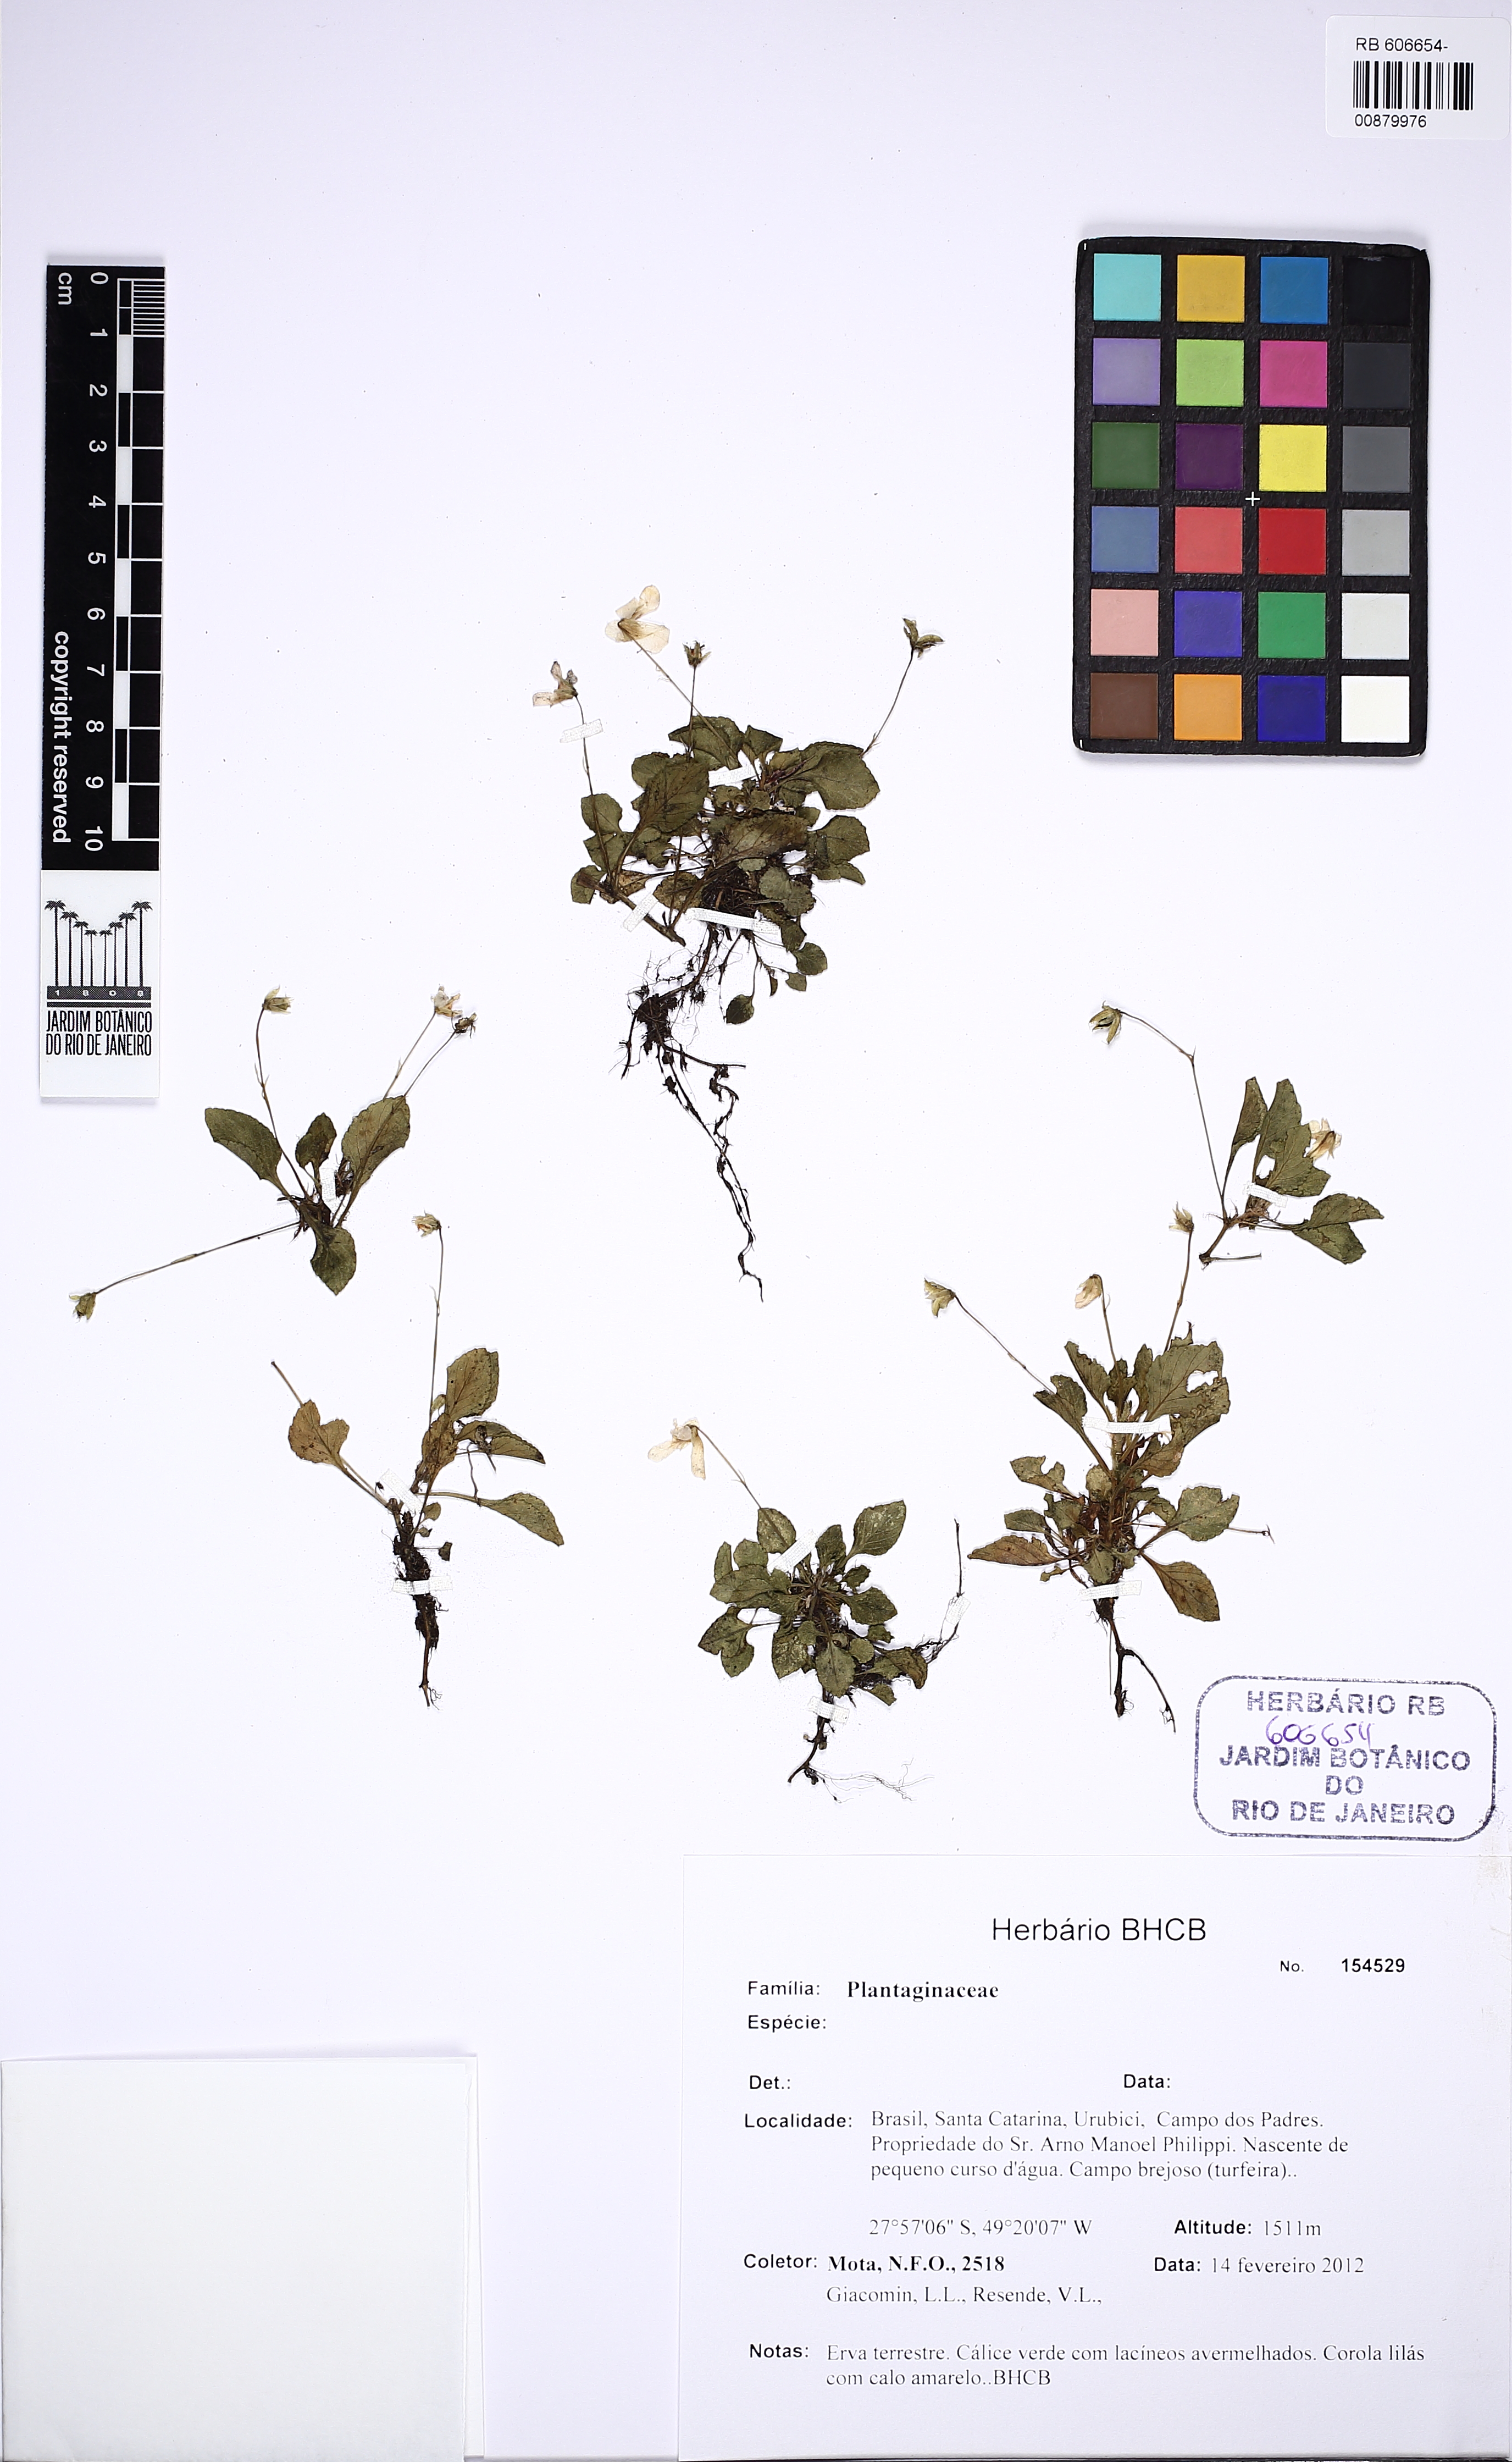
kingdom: Plantae
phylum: Tracheophyta
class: Magnoliopsida
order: Malpighiales
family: Violaceae
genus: Viola
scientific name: Viola
